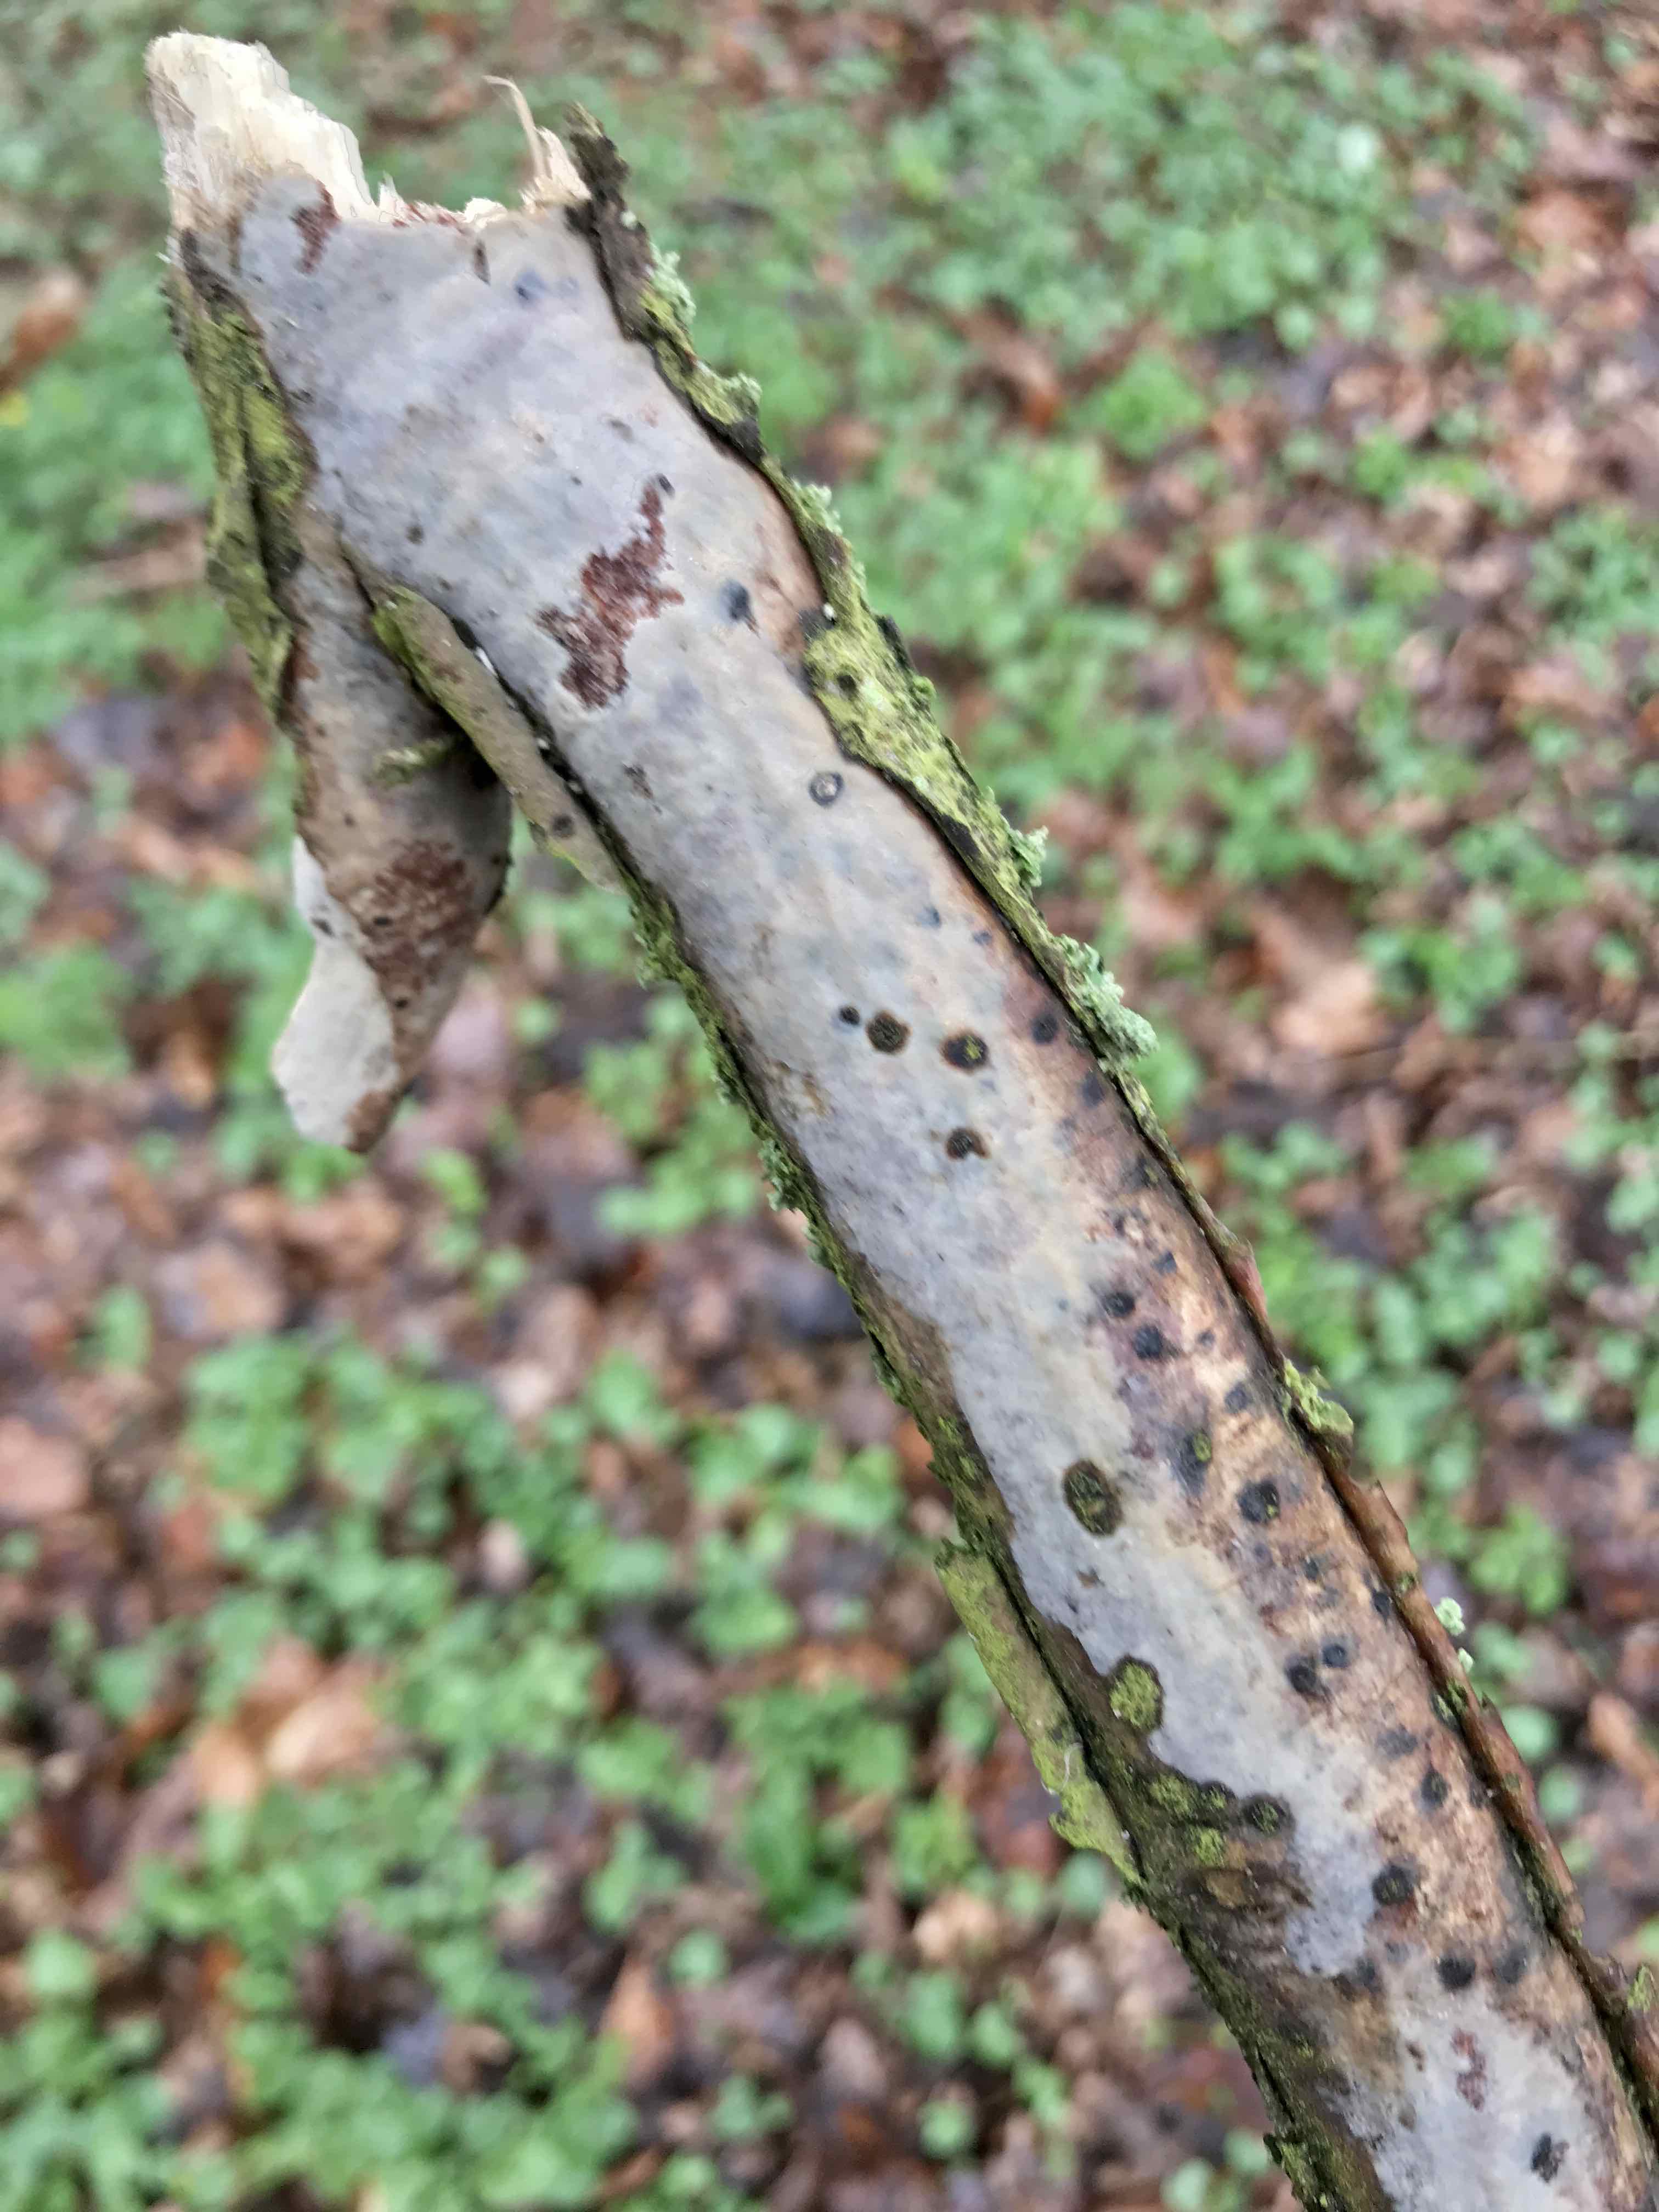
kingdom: Fungi
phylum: Basidiomycota
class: Agaricomycetes
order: Corticiales
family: Vuilleminiaceae
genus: Vuilleminia
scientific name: Vuilleminia comedens
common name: almindelig barksprænger
